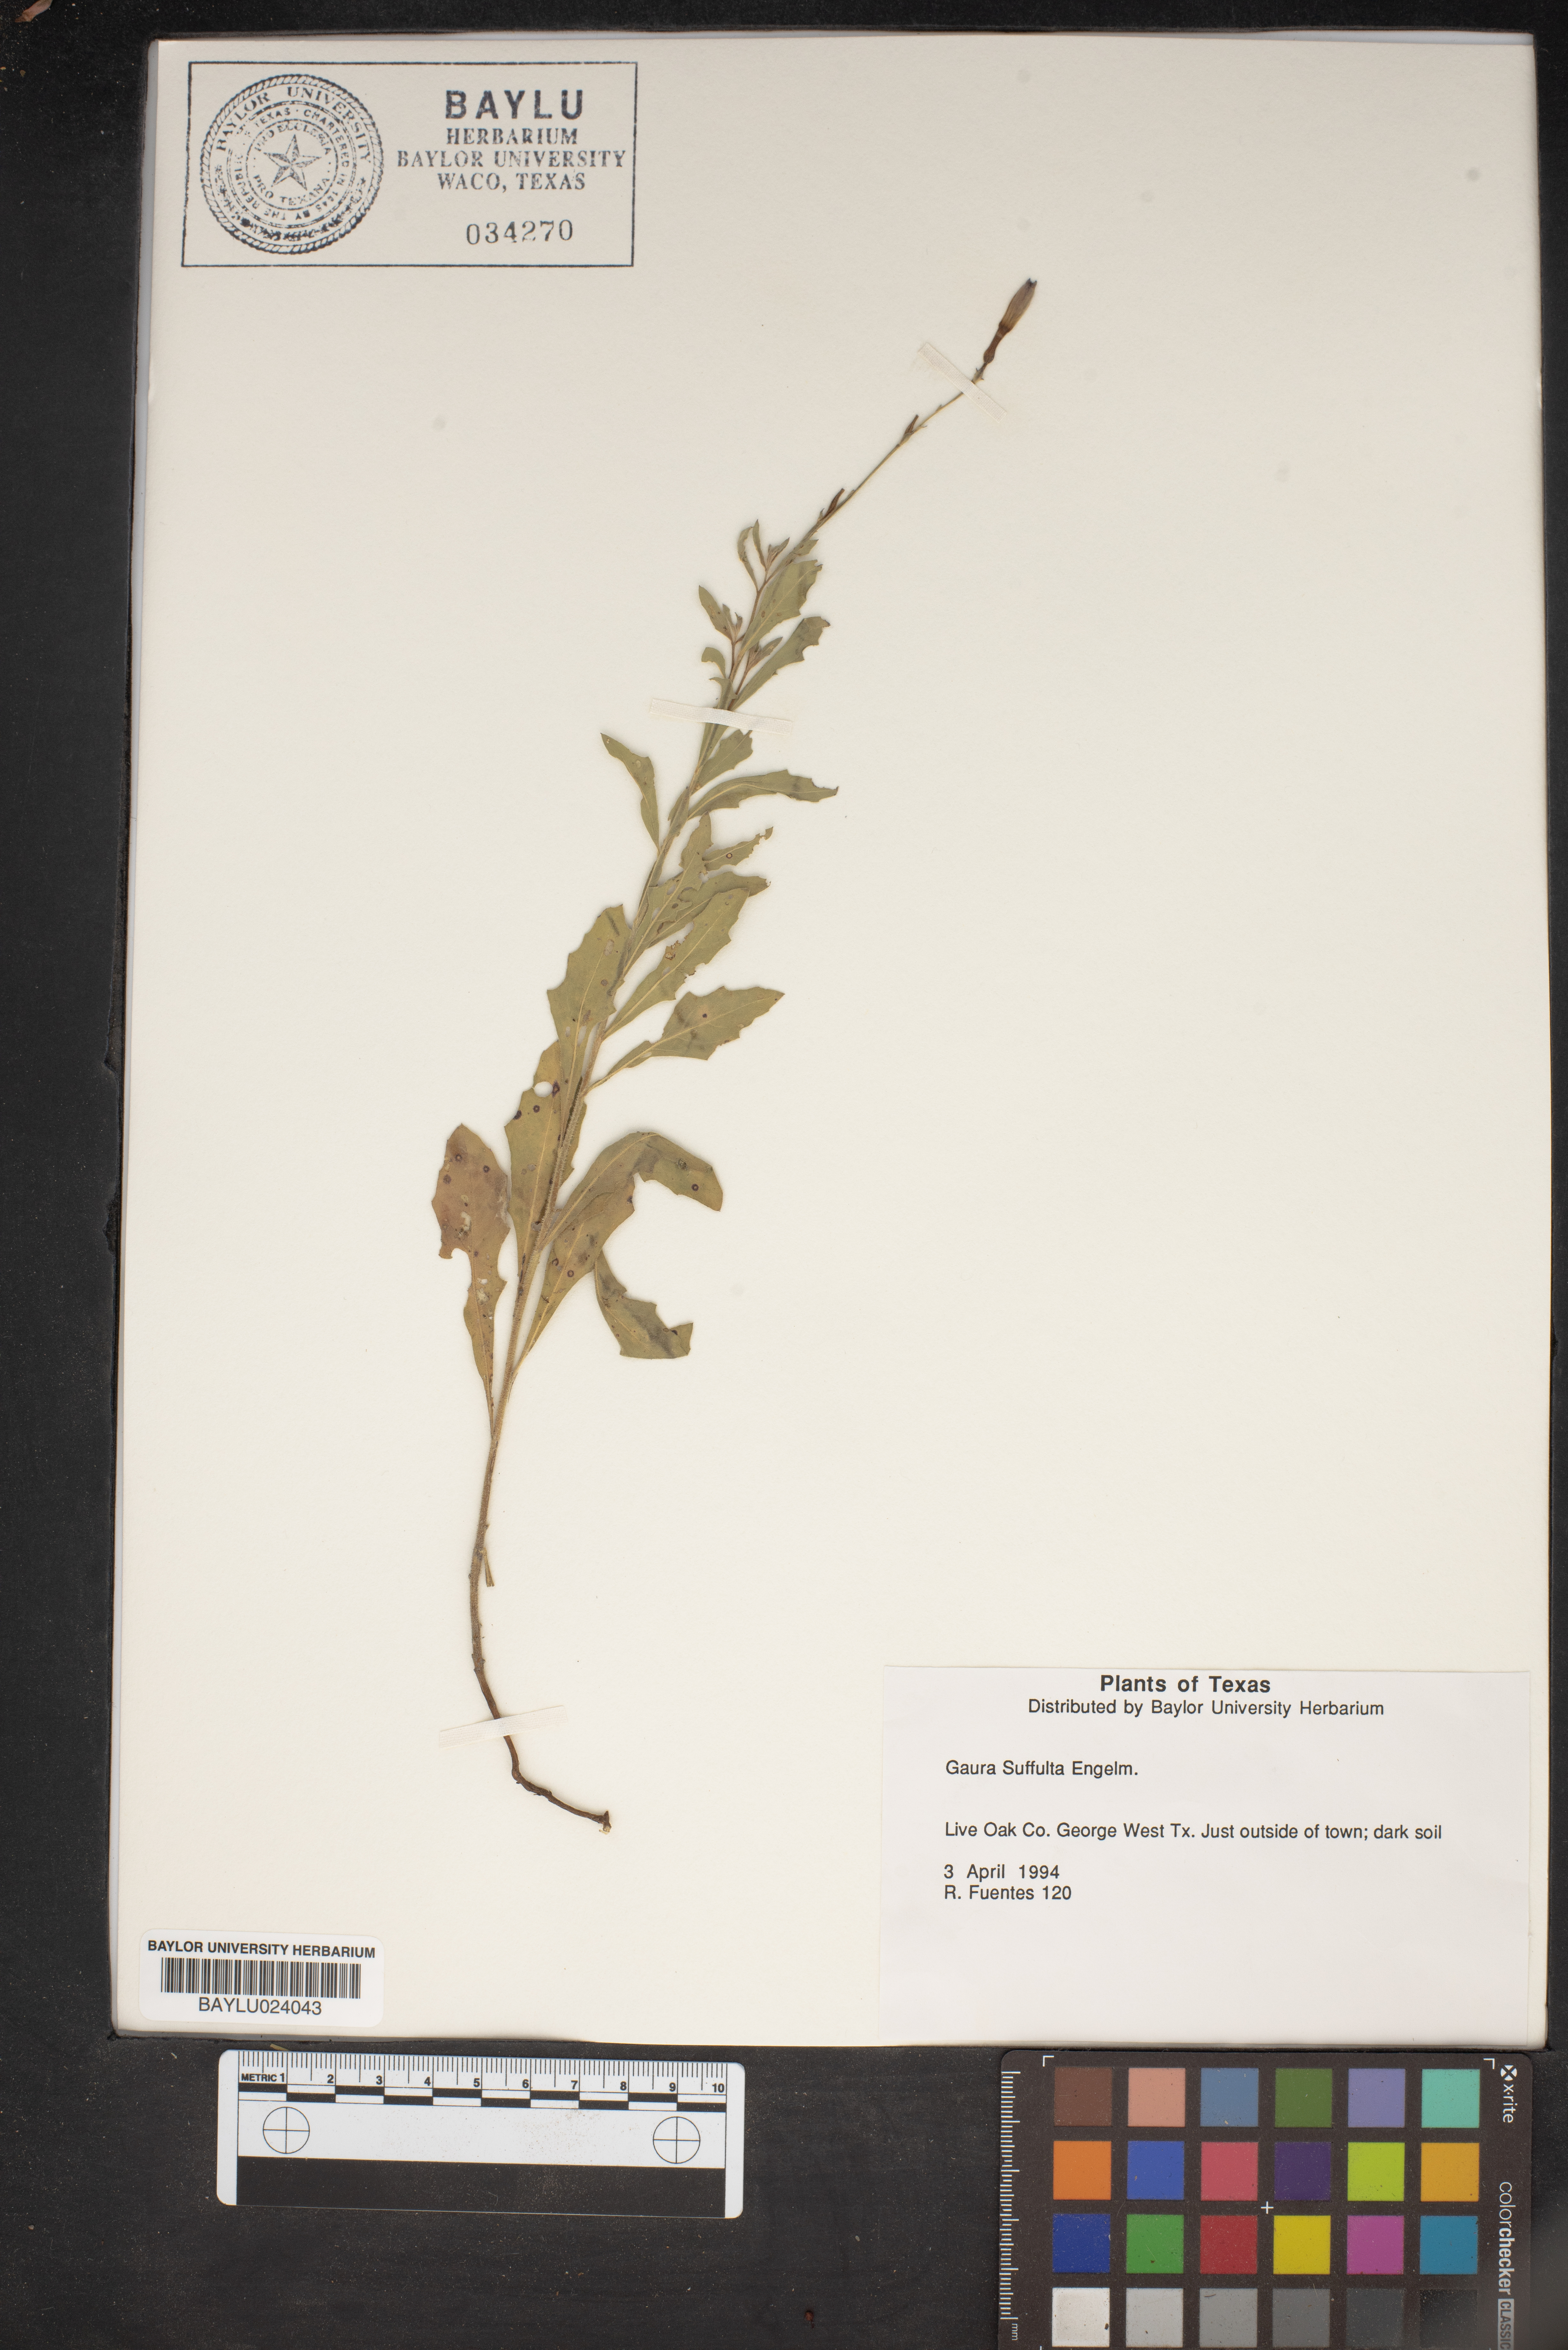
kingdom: Plantae
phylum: Tracheophyta
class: Magnoliopsida
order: Myrtales
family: Onagraceae
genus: Oenothera
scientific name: Oenothera Gaura suffulta
